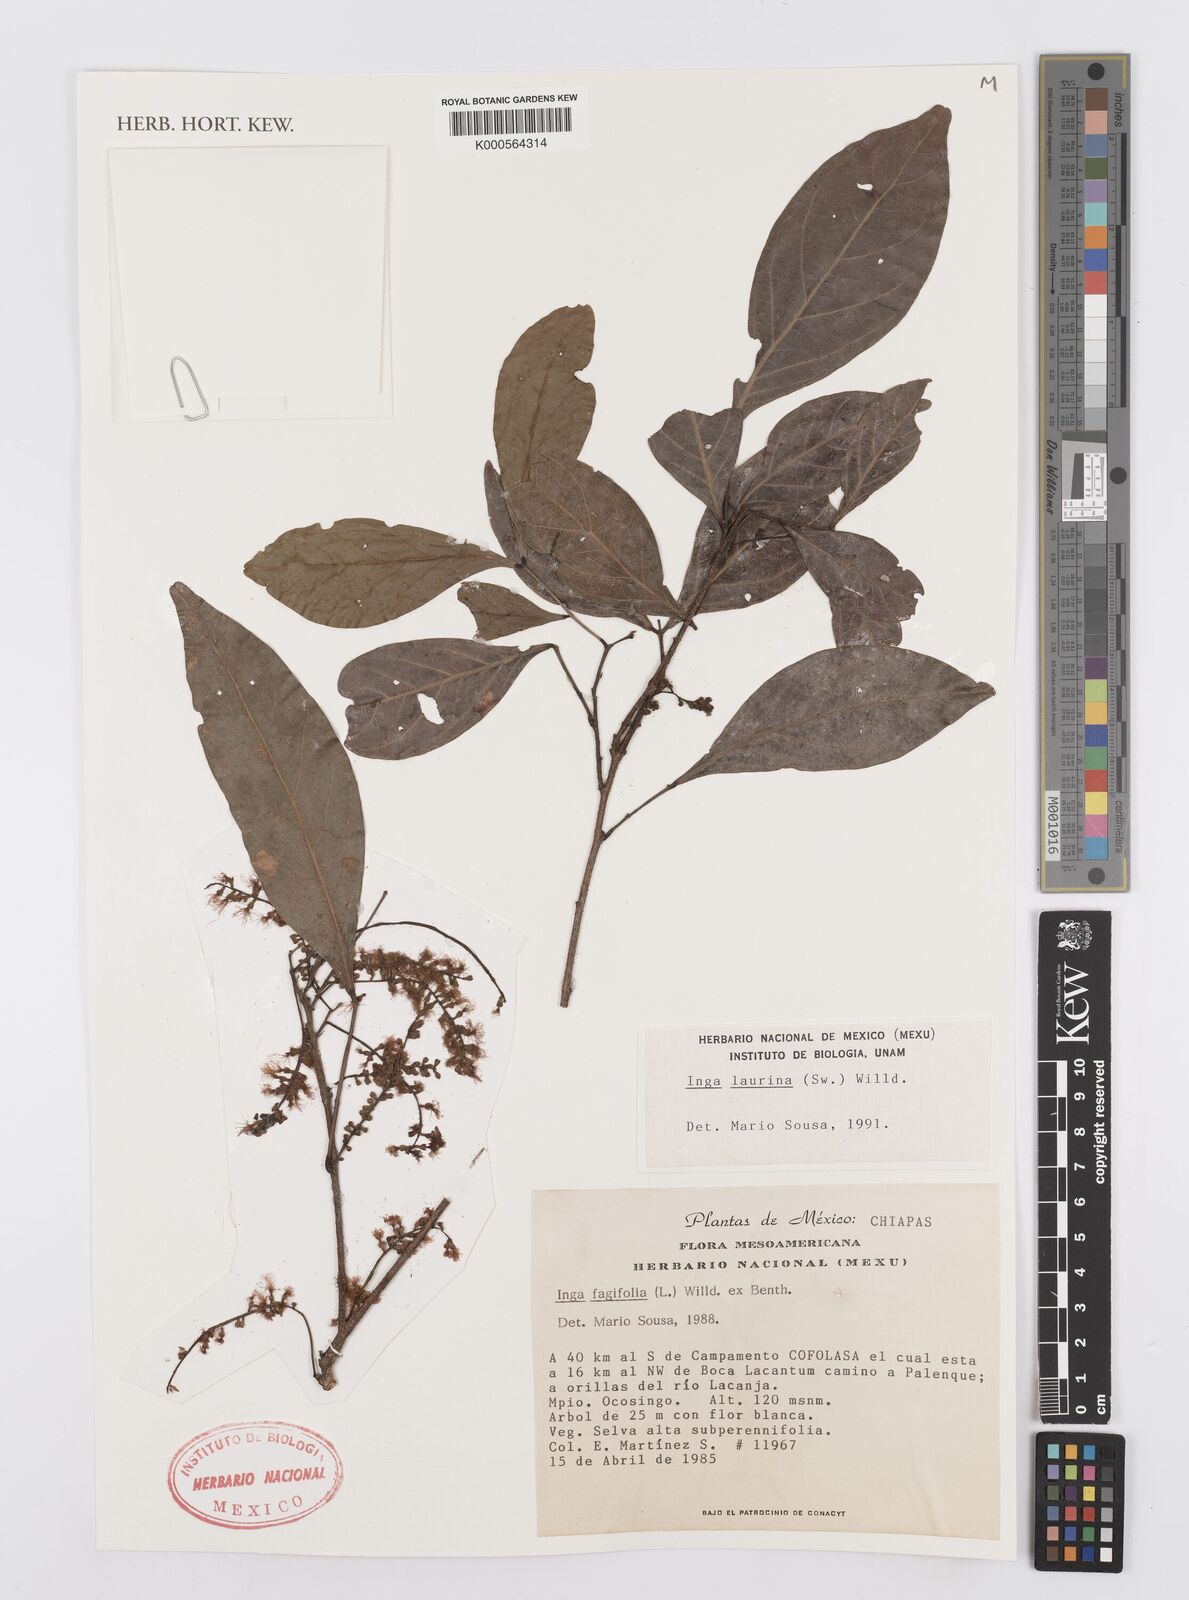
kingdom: Plantae
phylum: Tracheophyta
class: Magnoliopsida
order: Fabales
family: Fabaceae
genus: Inga
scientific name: Inga laurina
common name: Red wood
